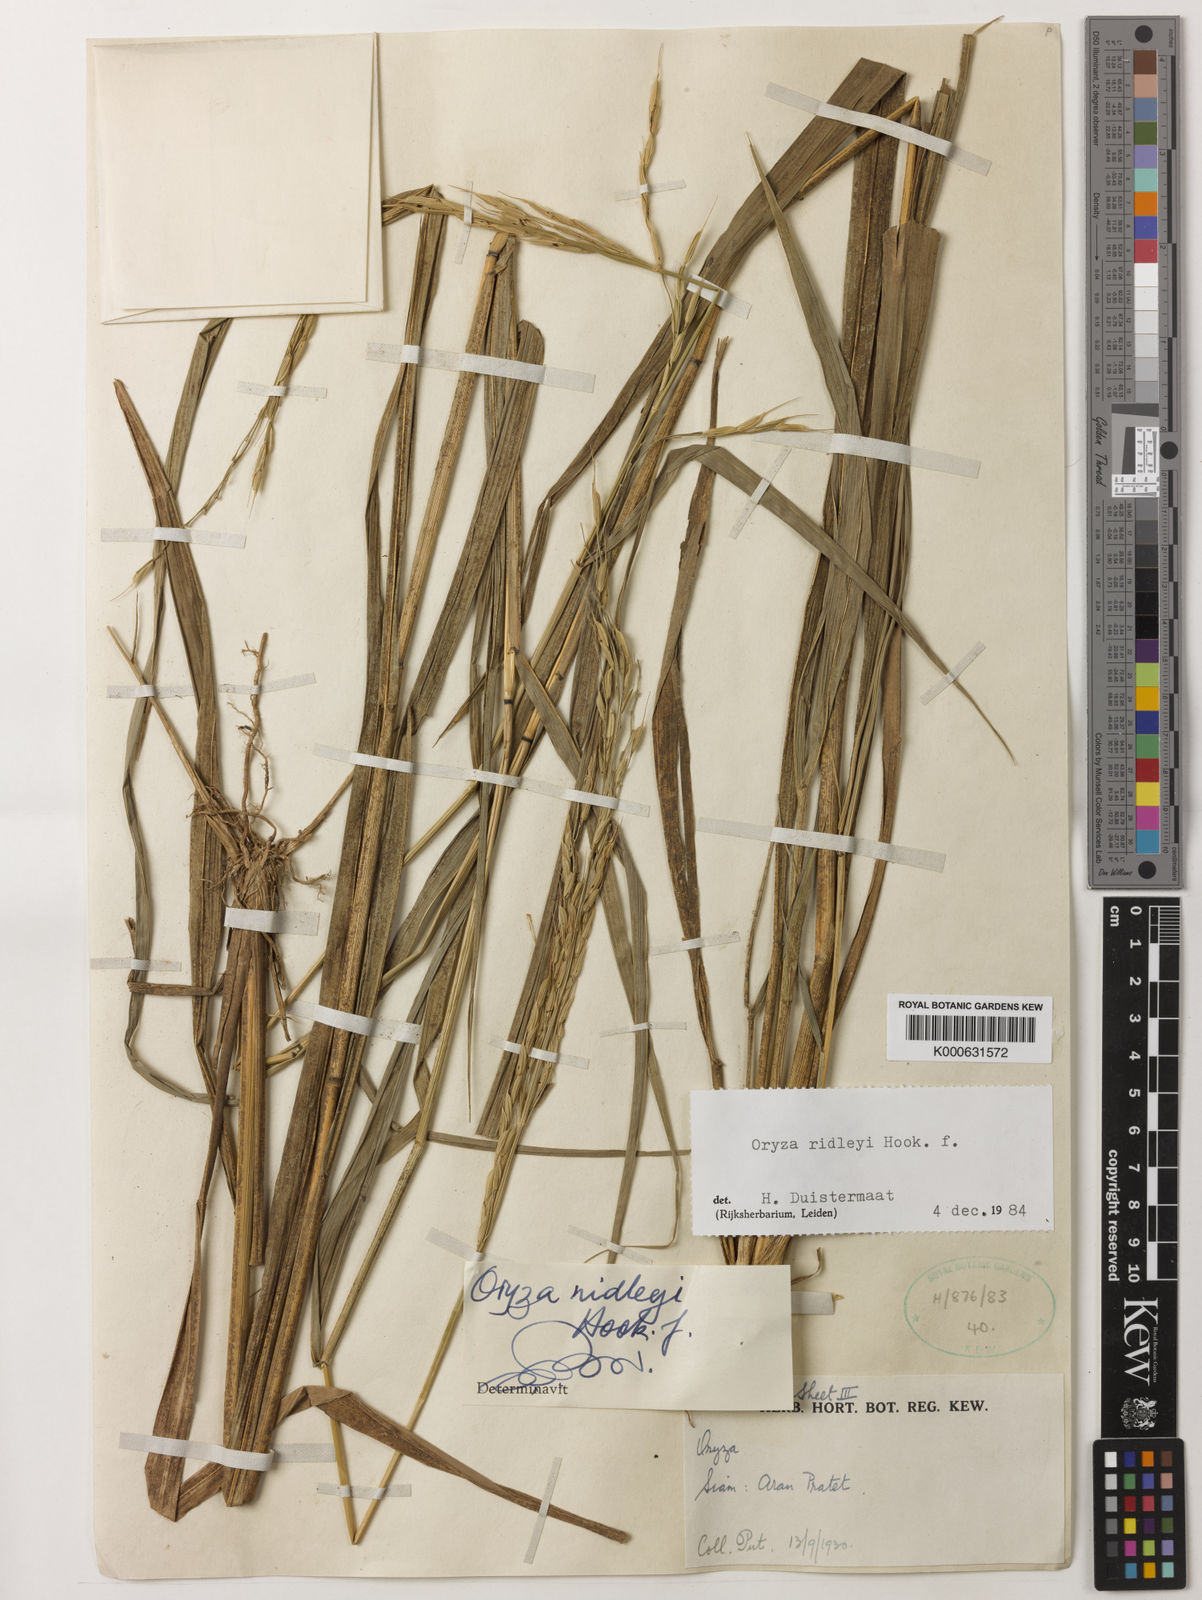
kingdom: Plantae
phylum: Tracheophyta
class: Liliopsida
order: Poales
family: Poaceae
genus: Oryza
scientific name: Oryza ridleyi
